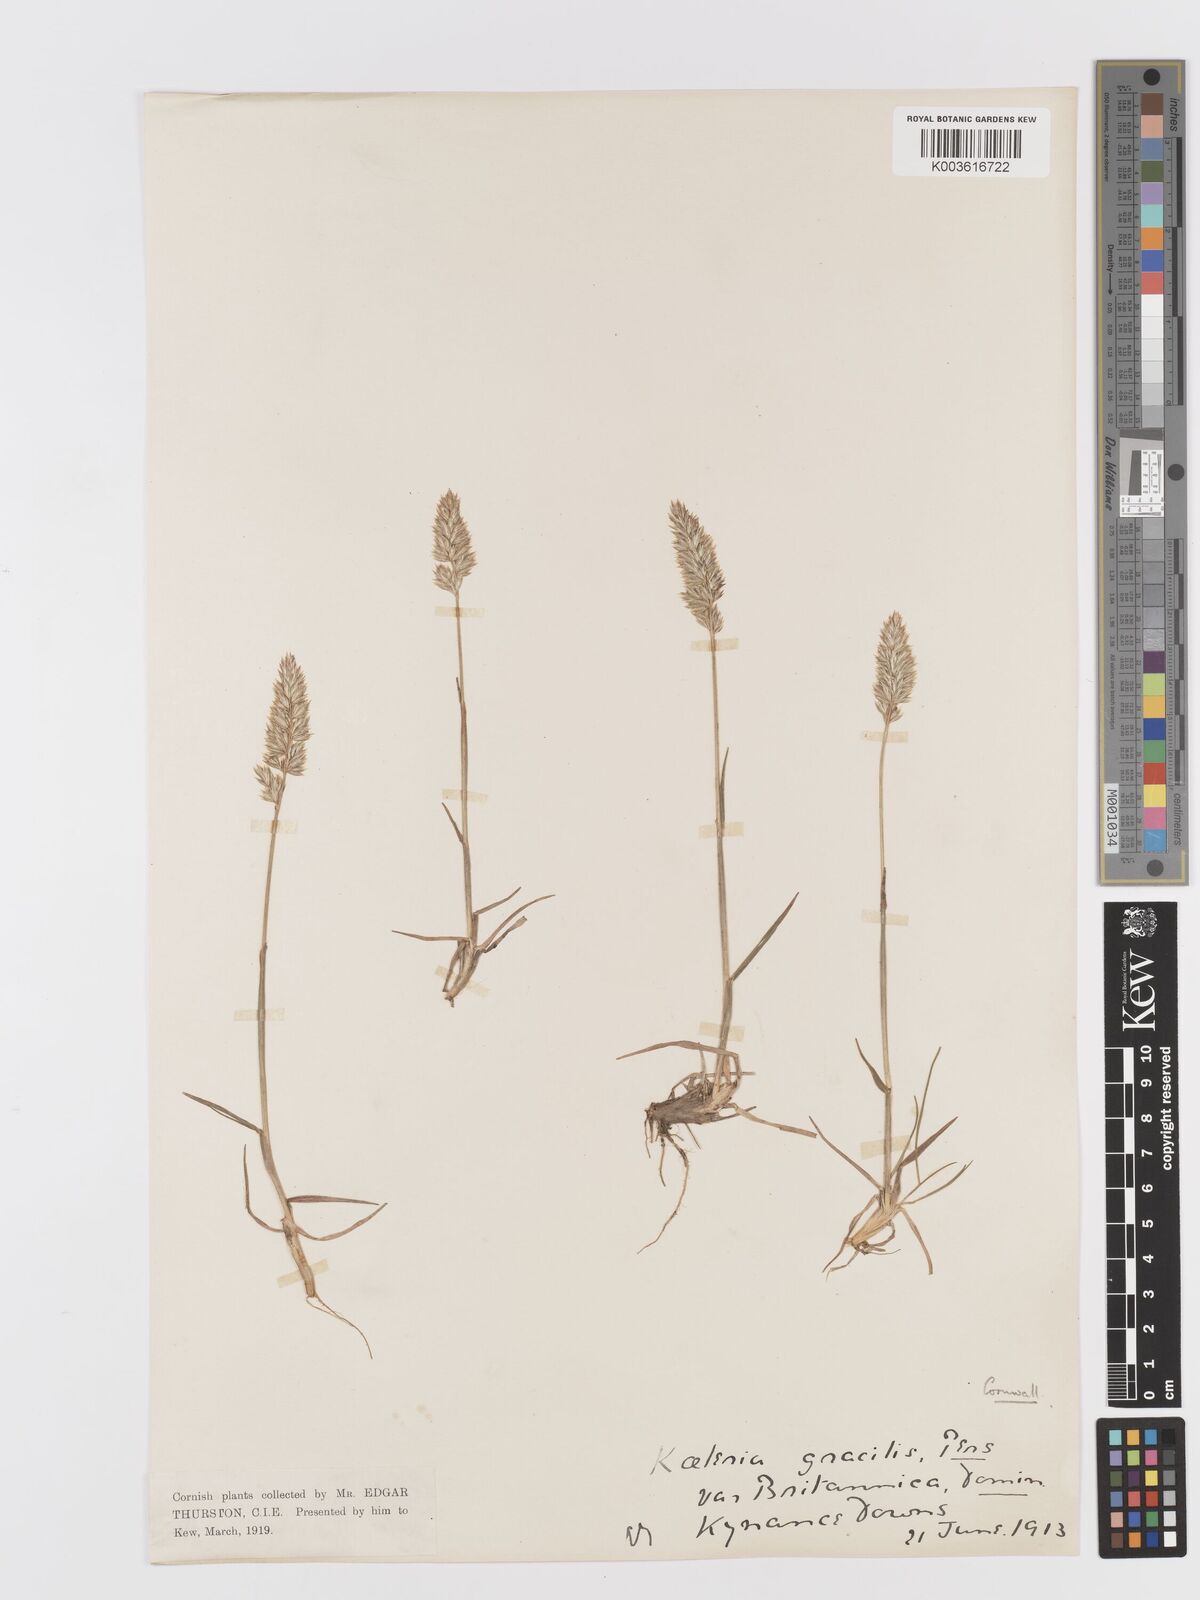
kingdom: Plantae
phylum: Tracheophyta
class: Liliopsida
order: Poales
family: Poaceae
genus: Koeleria
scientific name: Koeleria
